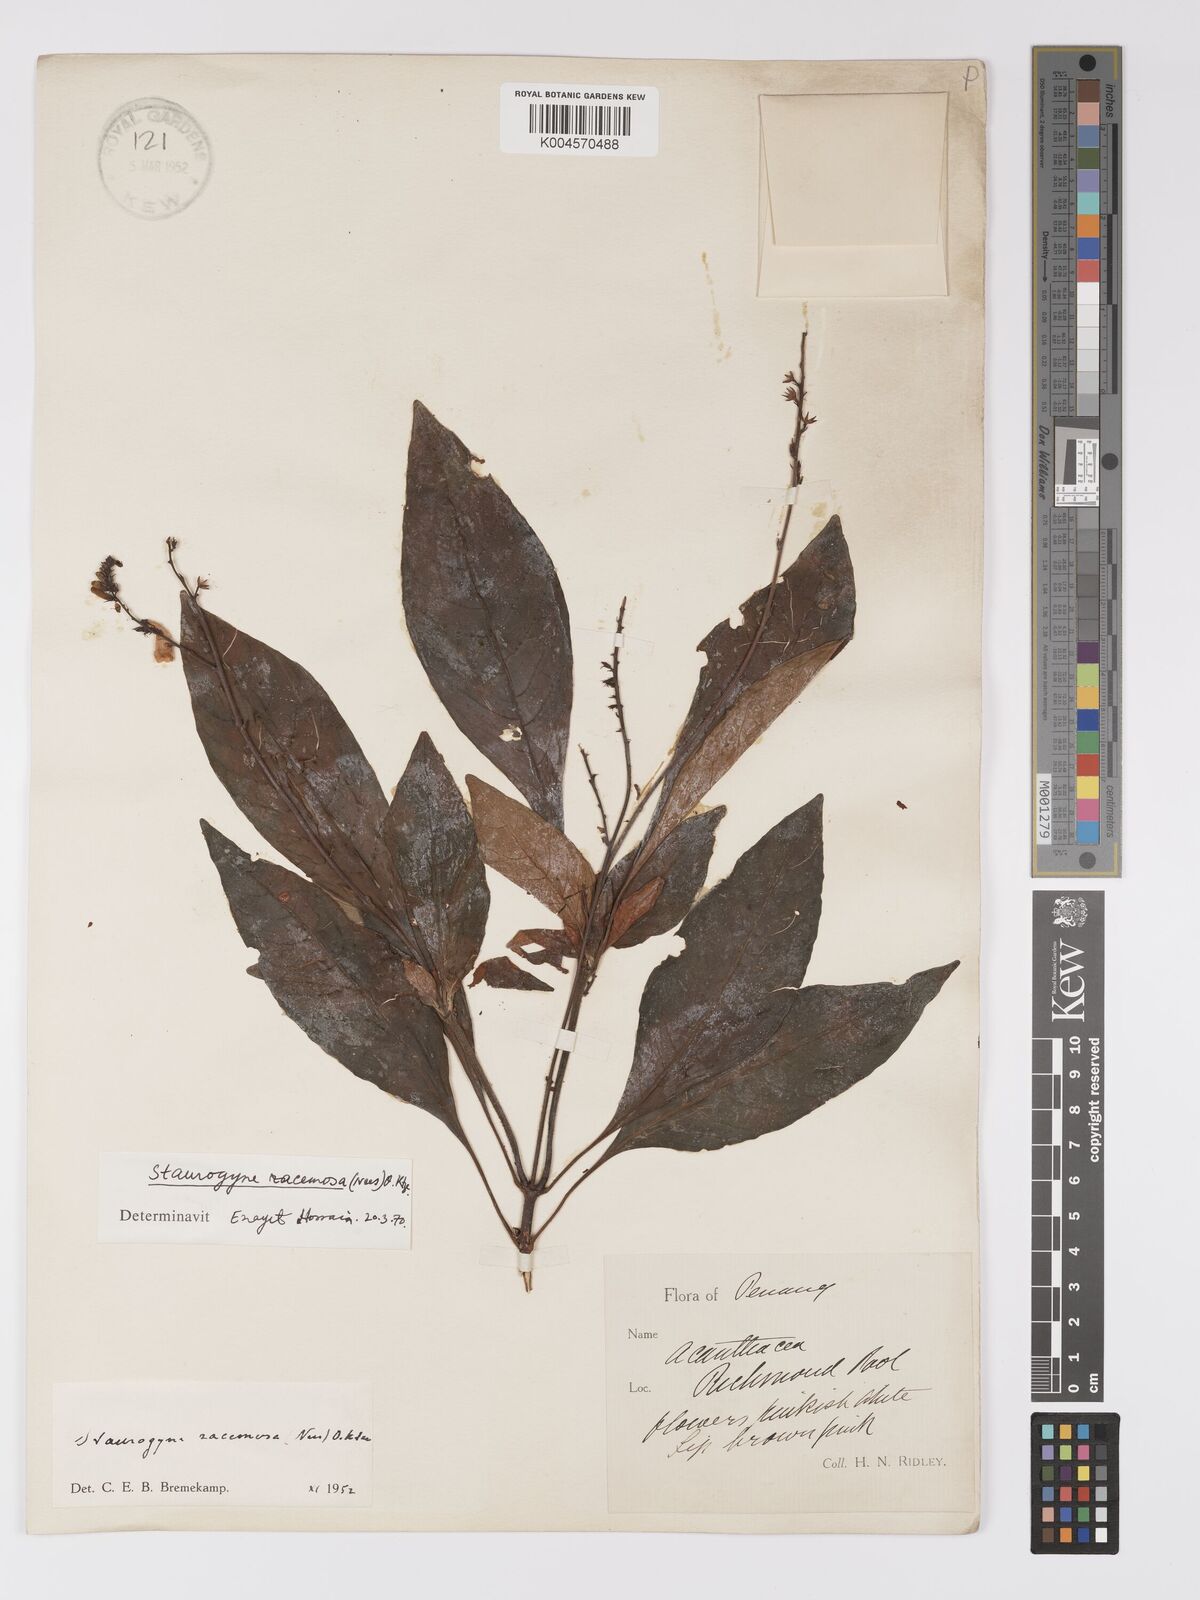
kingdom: Plantae
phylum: Tracheophyta
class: Magnoliopsida
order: Lamiales
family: Acanthaceae
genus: Staurogyne
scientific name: Staurogyne racemosa
